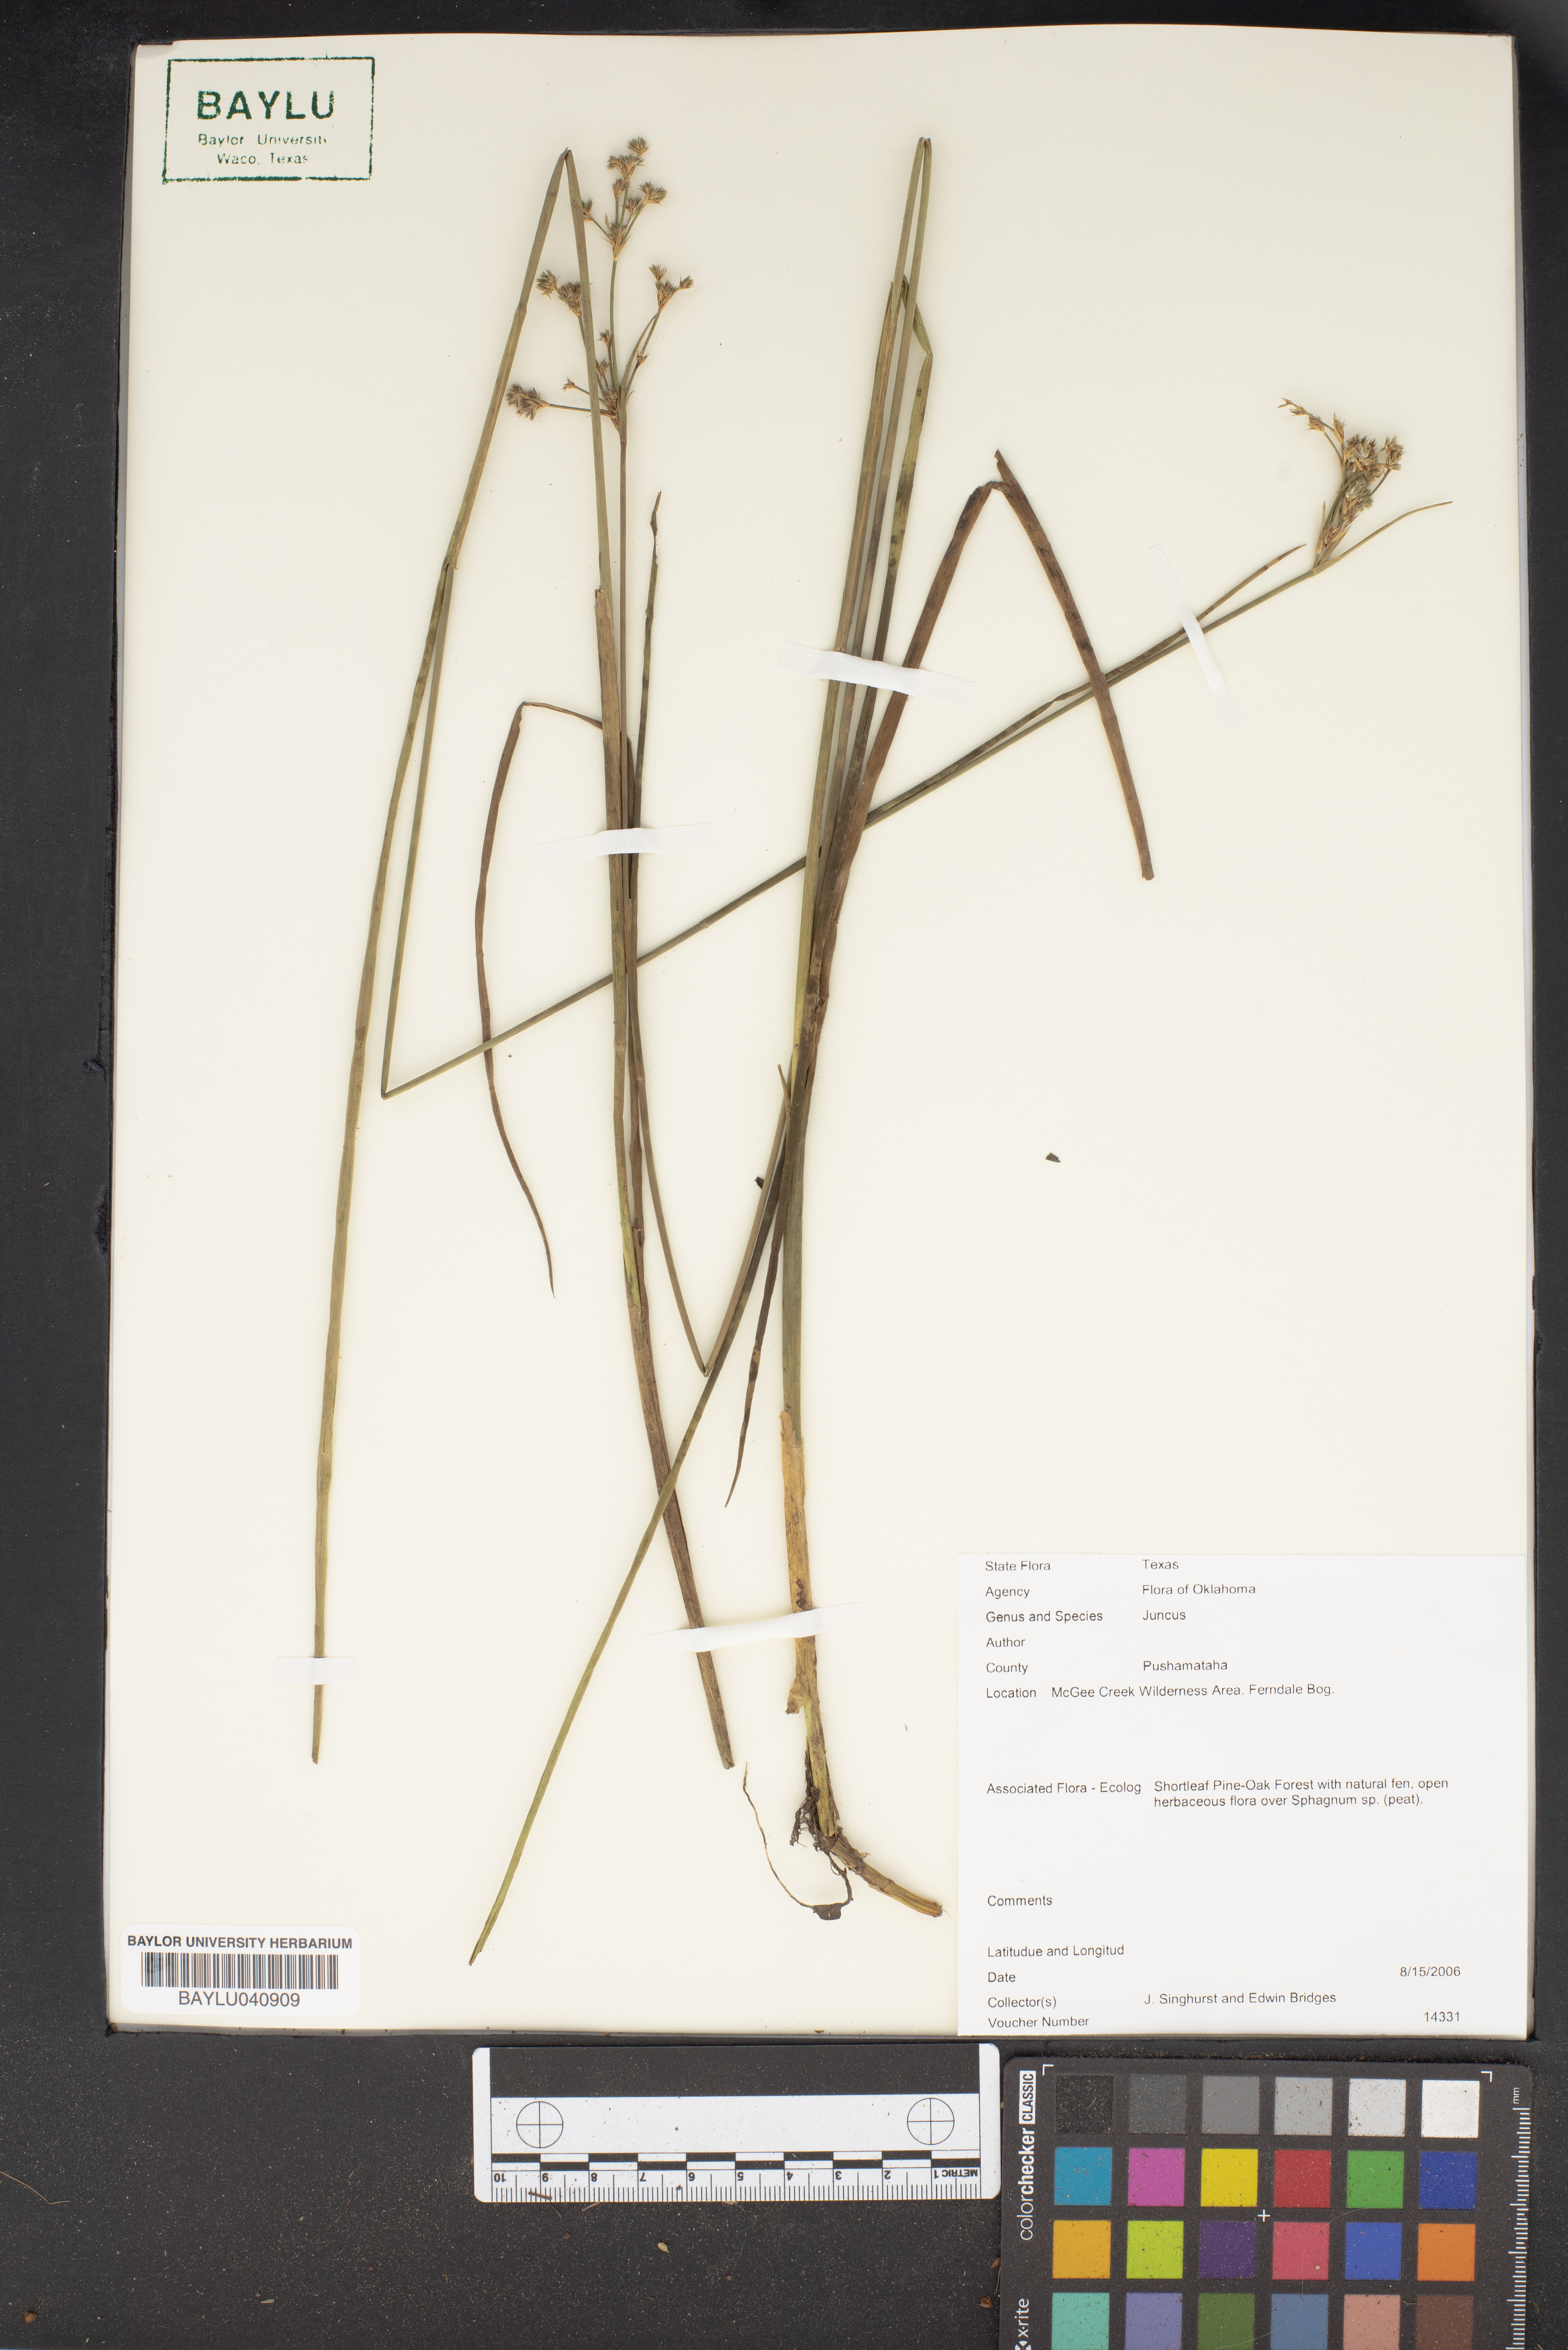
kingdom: Plantae
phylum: Tracheophyta
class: Liliopsida
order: Poales
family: Juncaceae
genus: Juncus
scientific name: Juncus
